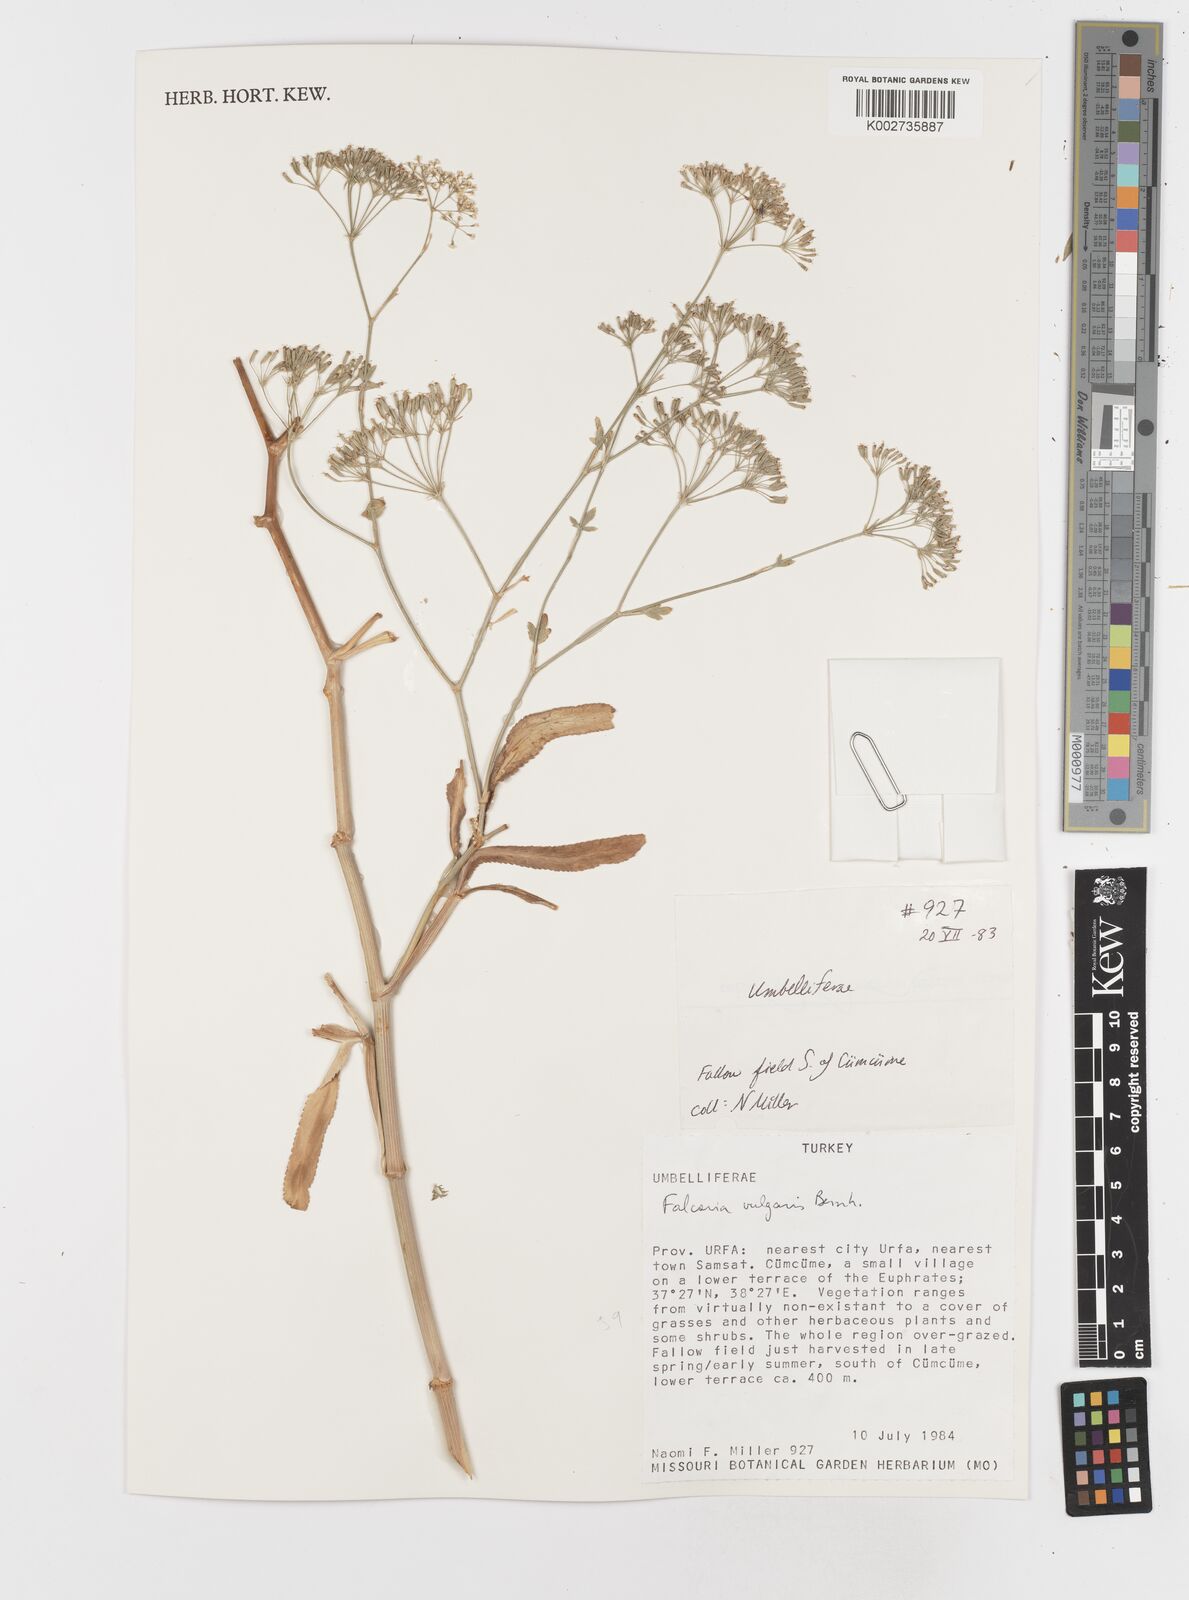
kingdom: Plantae
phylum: Tracheophyta
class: Magnoliopsida
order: Apiales
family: Apiaceae
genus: Falcaria
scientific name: Falcaria vulgaris
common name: Longleaf
